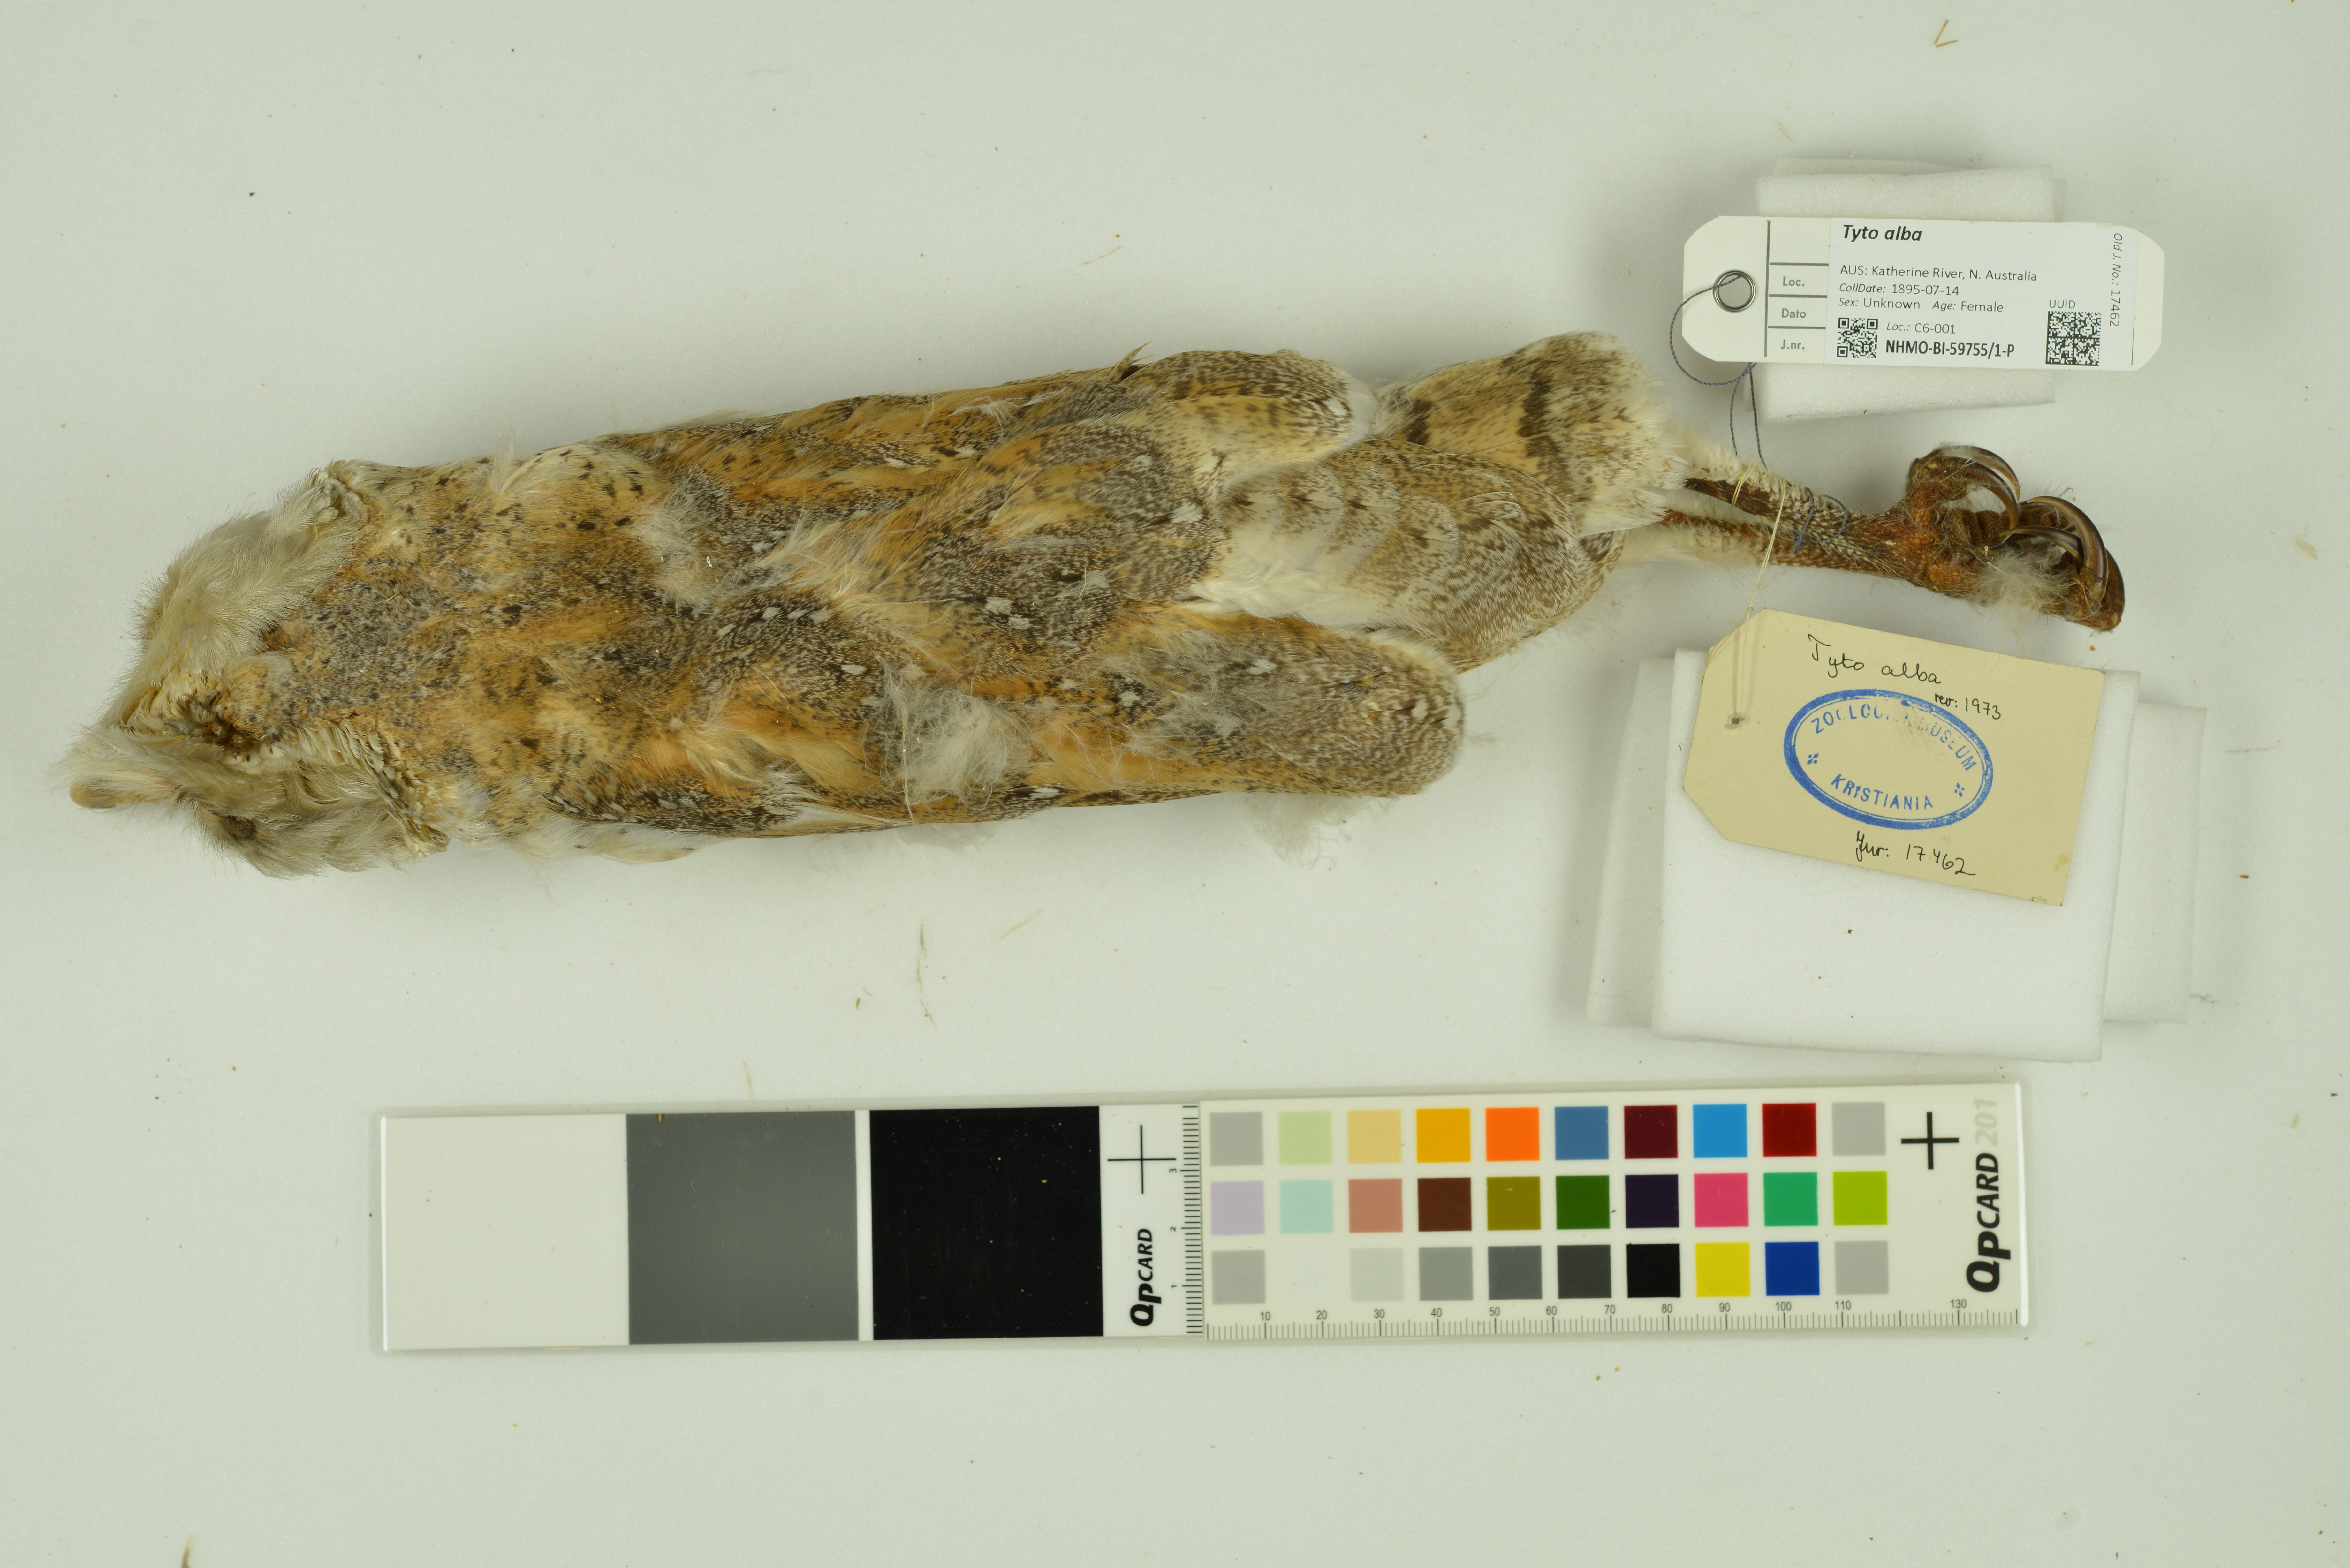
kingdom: Animalia
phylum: Chordata
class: Aves
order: Strigiformes
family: Tytonidae
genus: Tyto
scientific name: Tyto alba
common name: Barn owl
